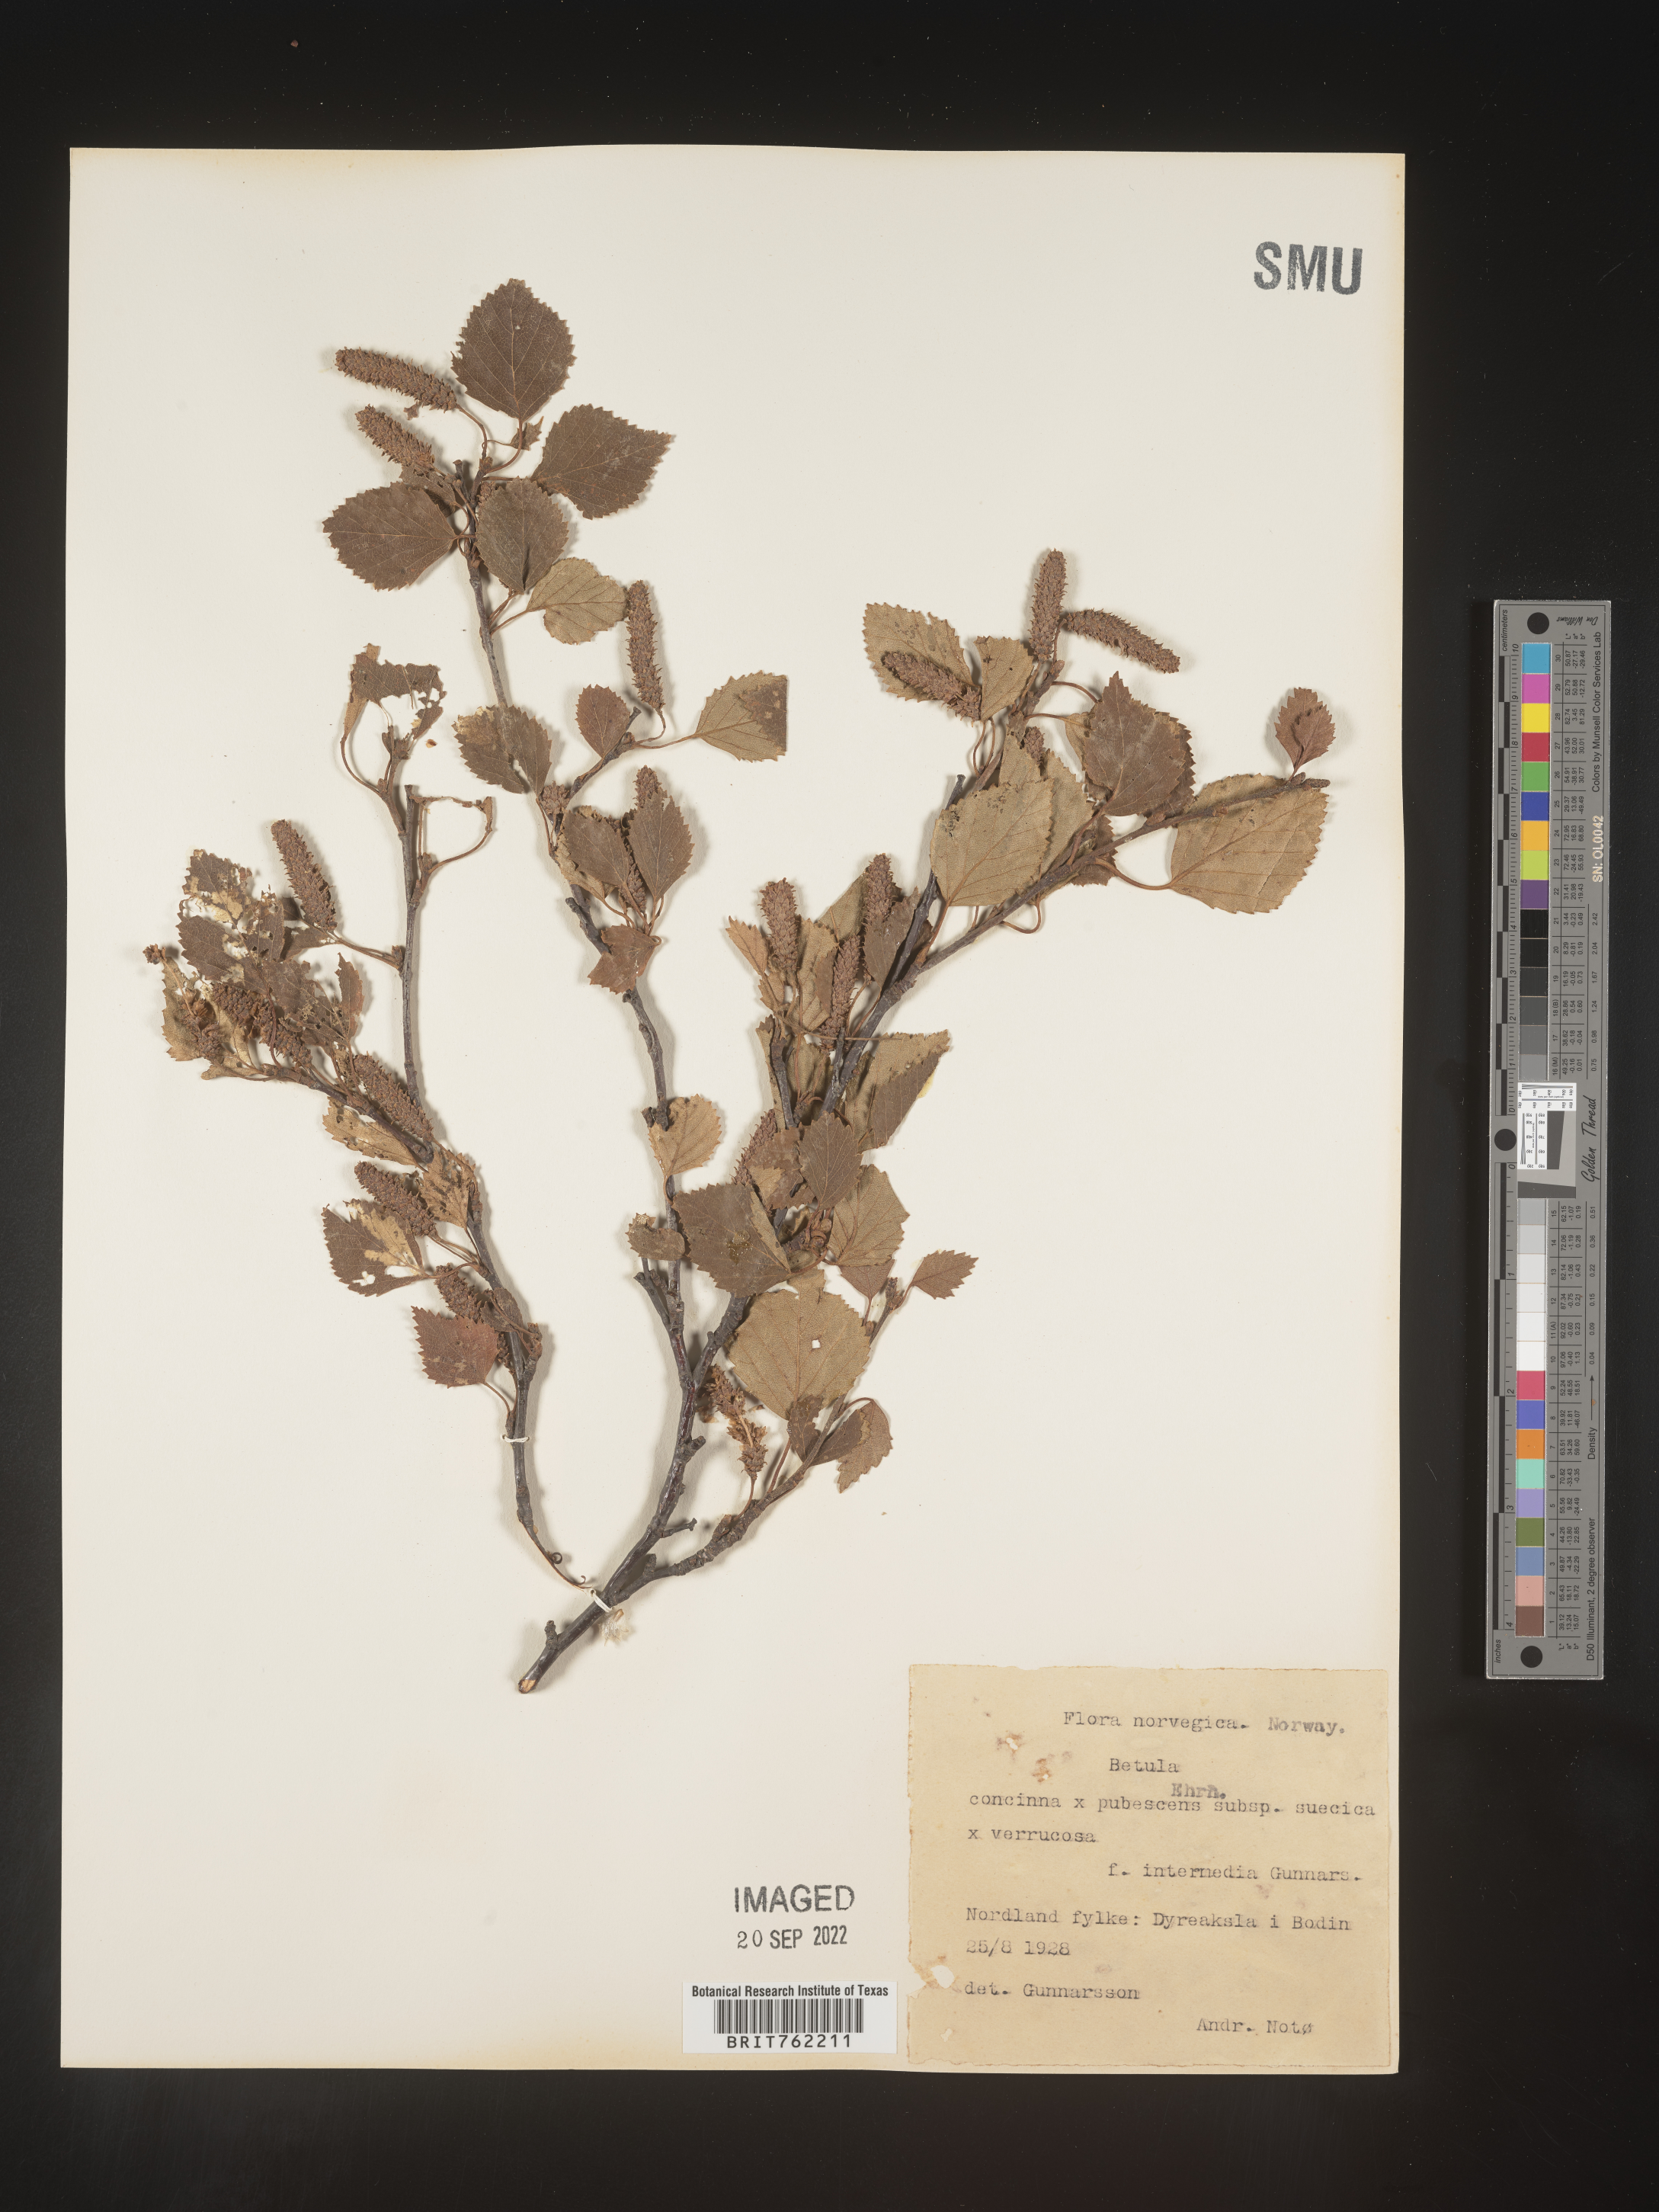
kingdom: Plantae
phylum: Tracheophyta
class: Magnoliopsida
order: Fagales
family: Betulaceae
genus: Betula
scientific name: Betula
